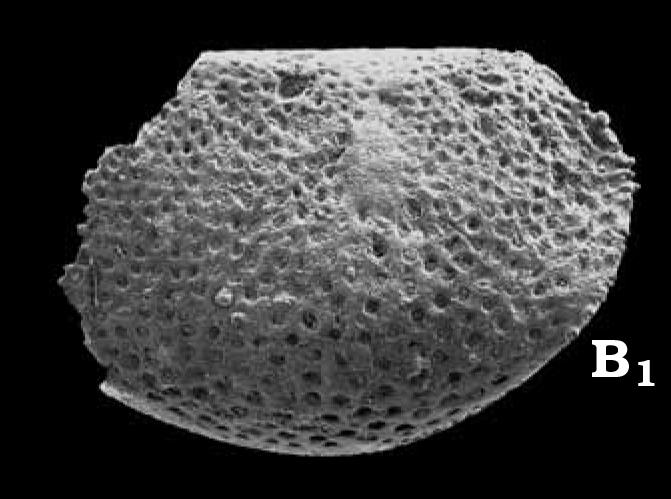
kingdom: Animalia
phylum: Arthropoda
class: Ostracoda
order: Palaeocopida
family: Oepikellidae
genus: Lavachilina
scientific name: Lavachilina evae
